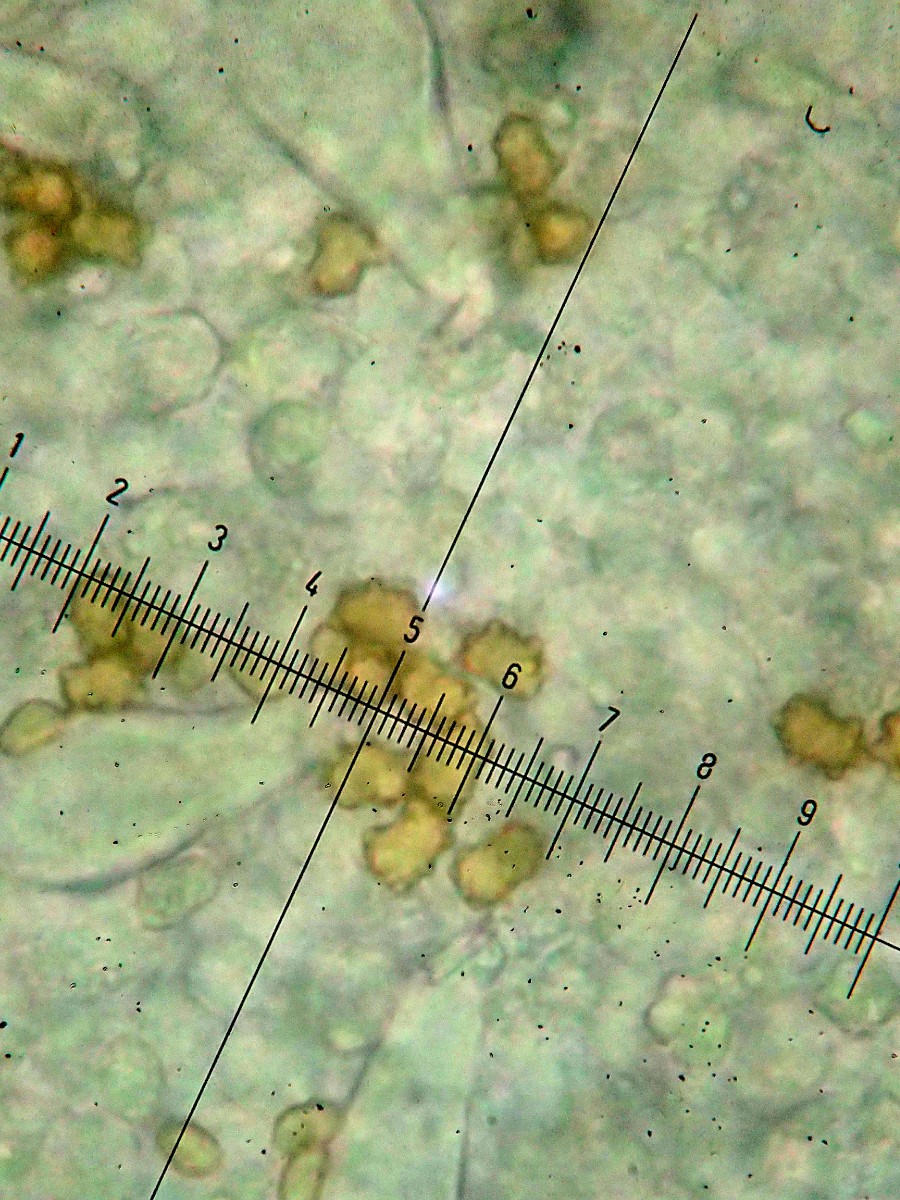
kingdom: Fungi
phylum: Basidiomycota
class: Agaricomycetes
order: Agaricales
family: Inocybaceae
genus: Inocybe
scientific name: Inocybe mixtilis
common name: randknoldet trævlhat
